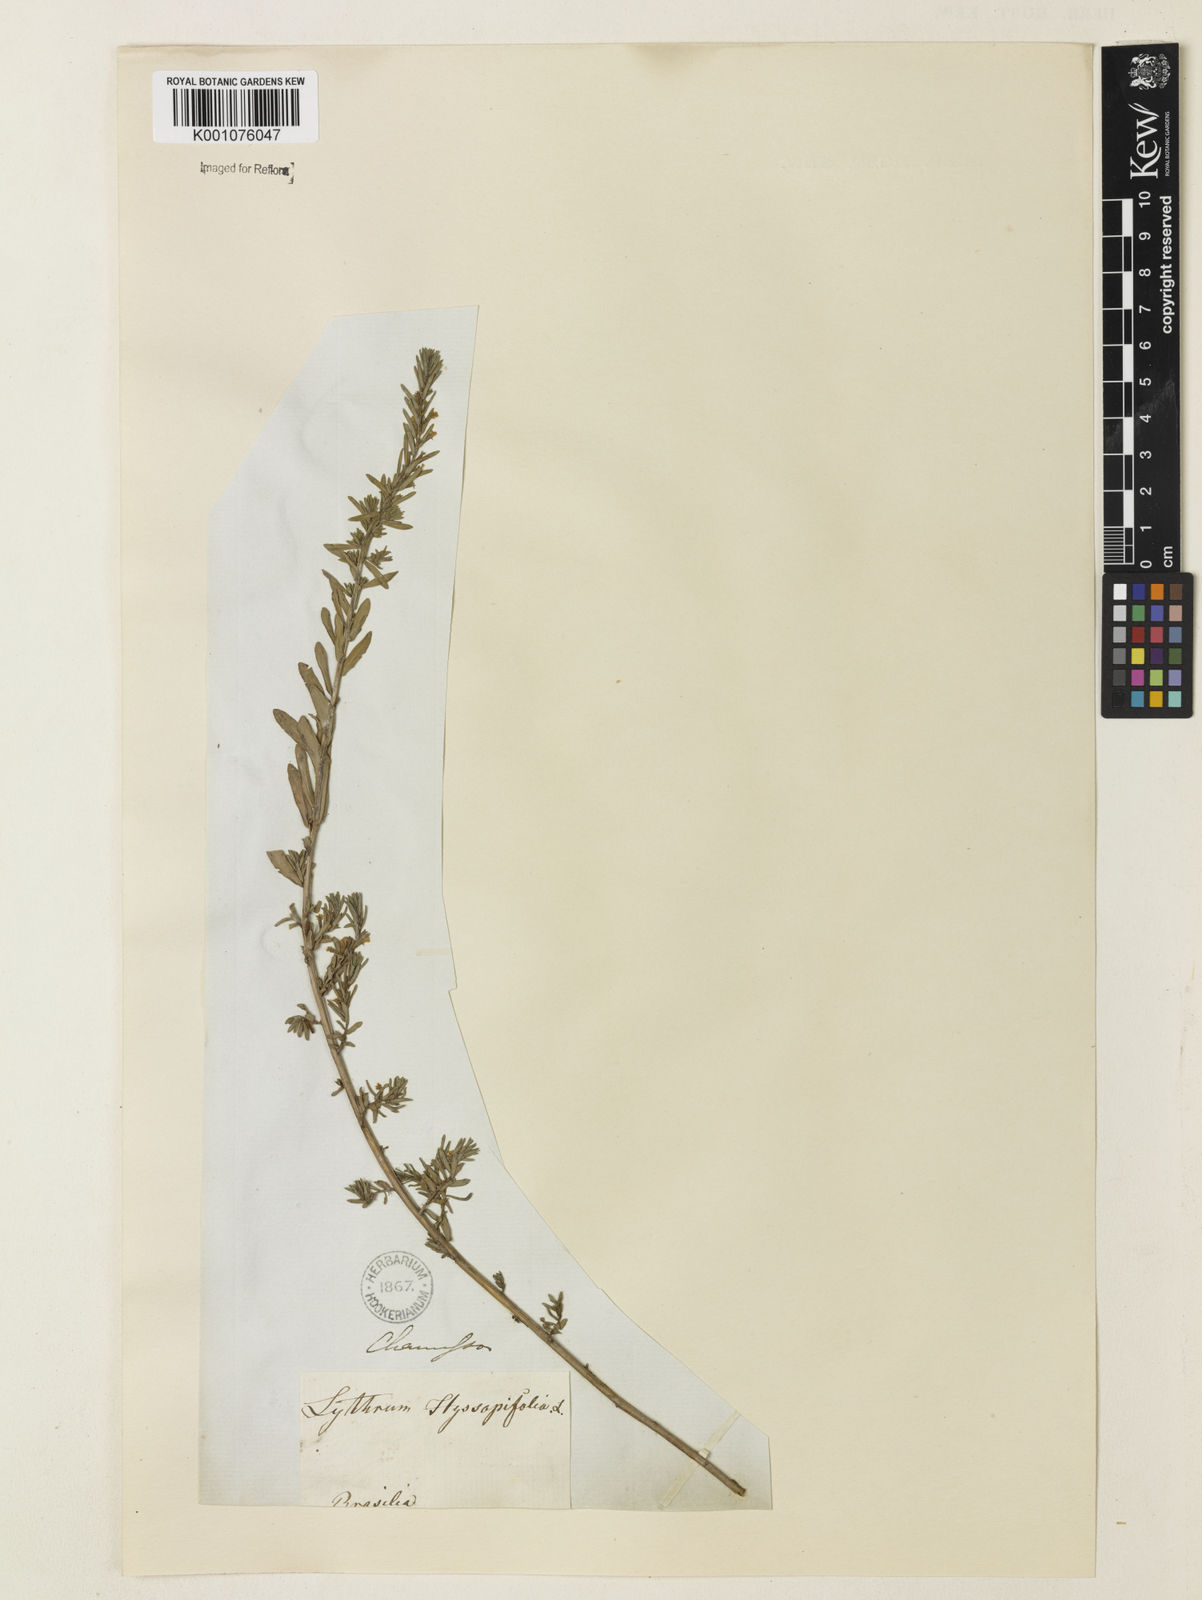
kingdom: Plantae
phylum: Tracheophyta
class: Magnoliopsida
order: Myrtales
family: Lythraceae
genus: Lythrum
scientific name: Lythrum hyssopifolia
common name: Grass-poly
